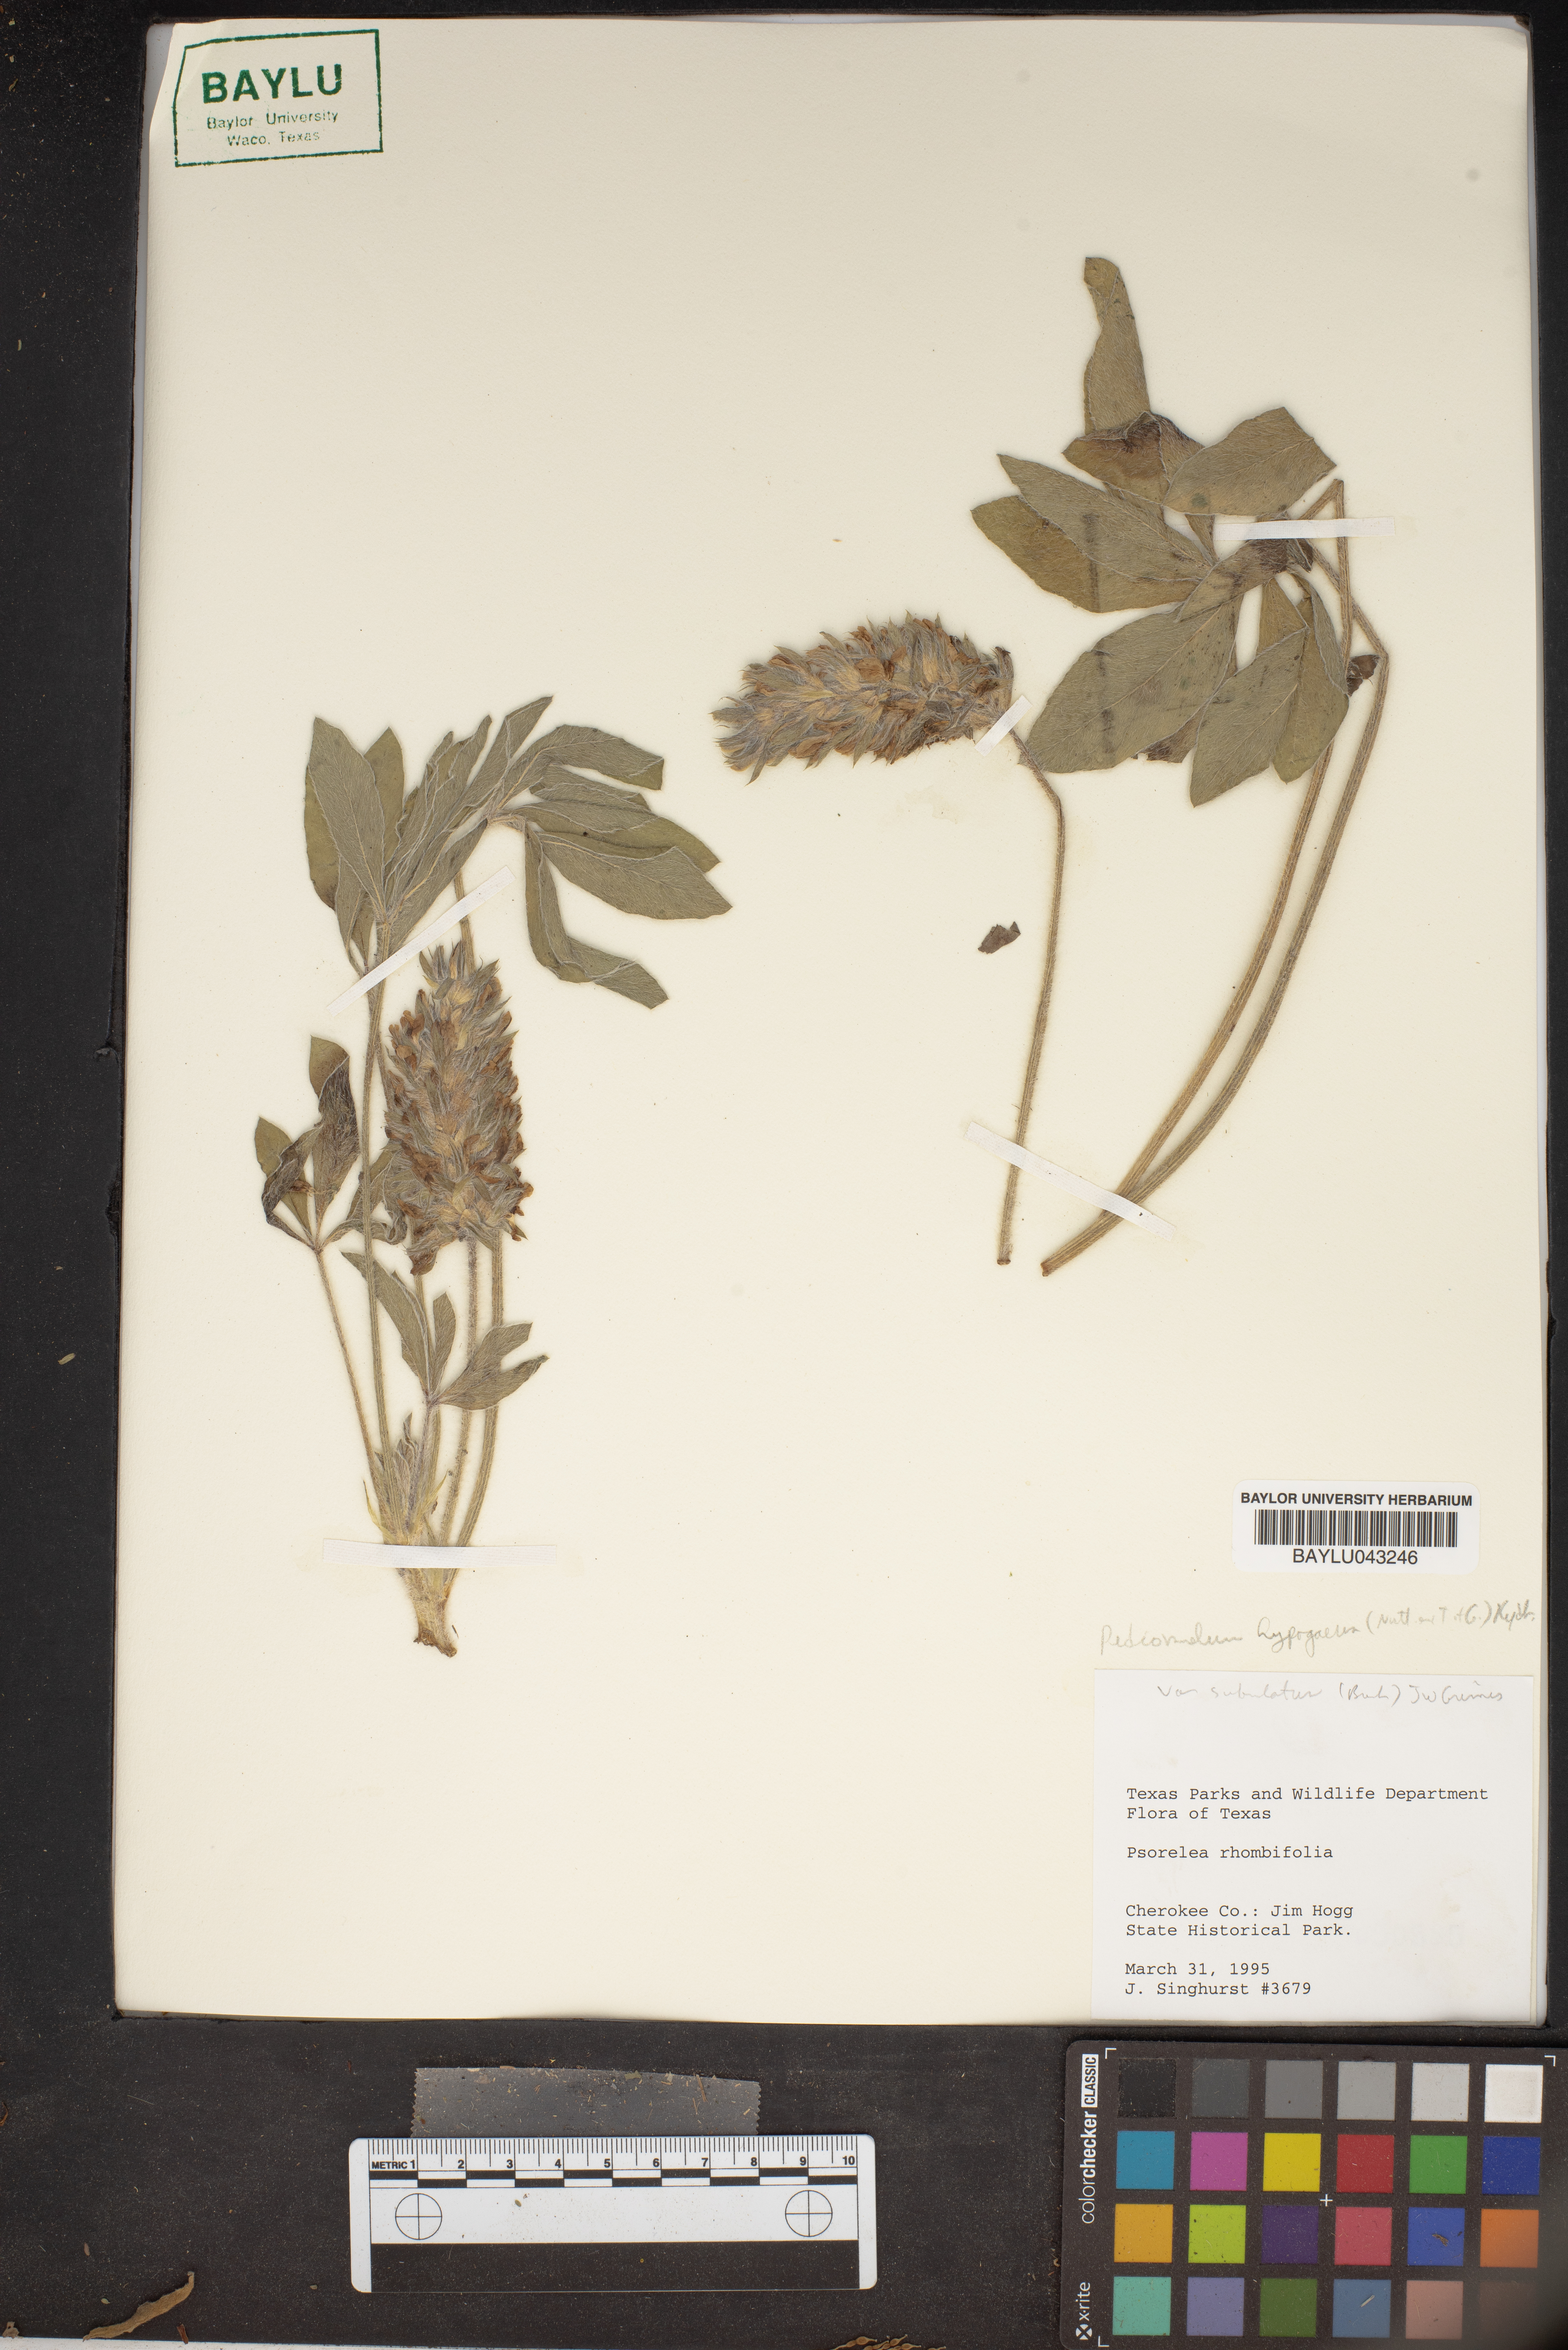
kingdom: Plantae
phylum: Tracheophyta
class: Magnoliopsida
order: Fabales
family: Fabaceae
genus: Pediomelum
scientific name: Pediomelum rhombifolium
